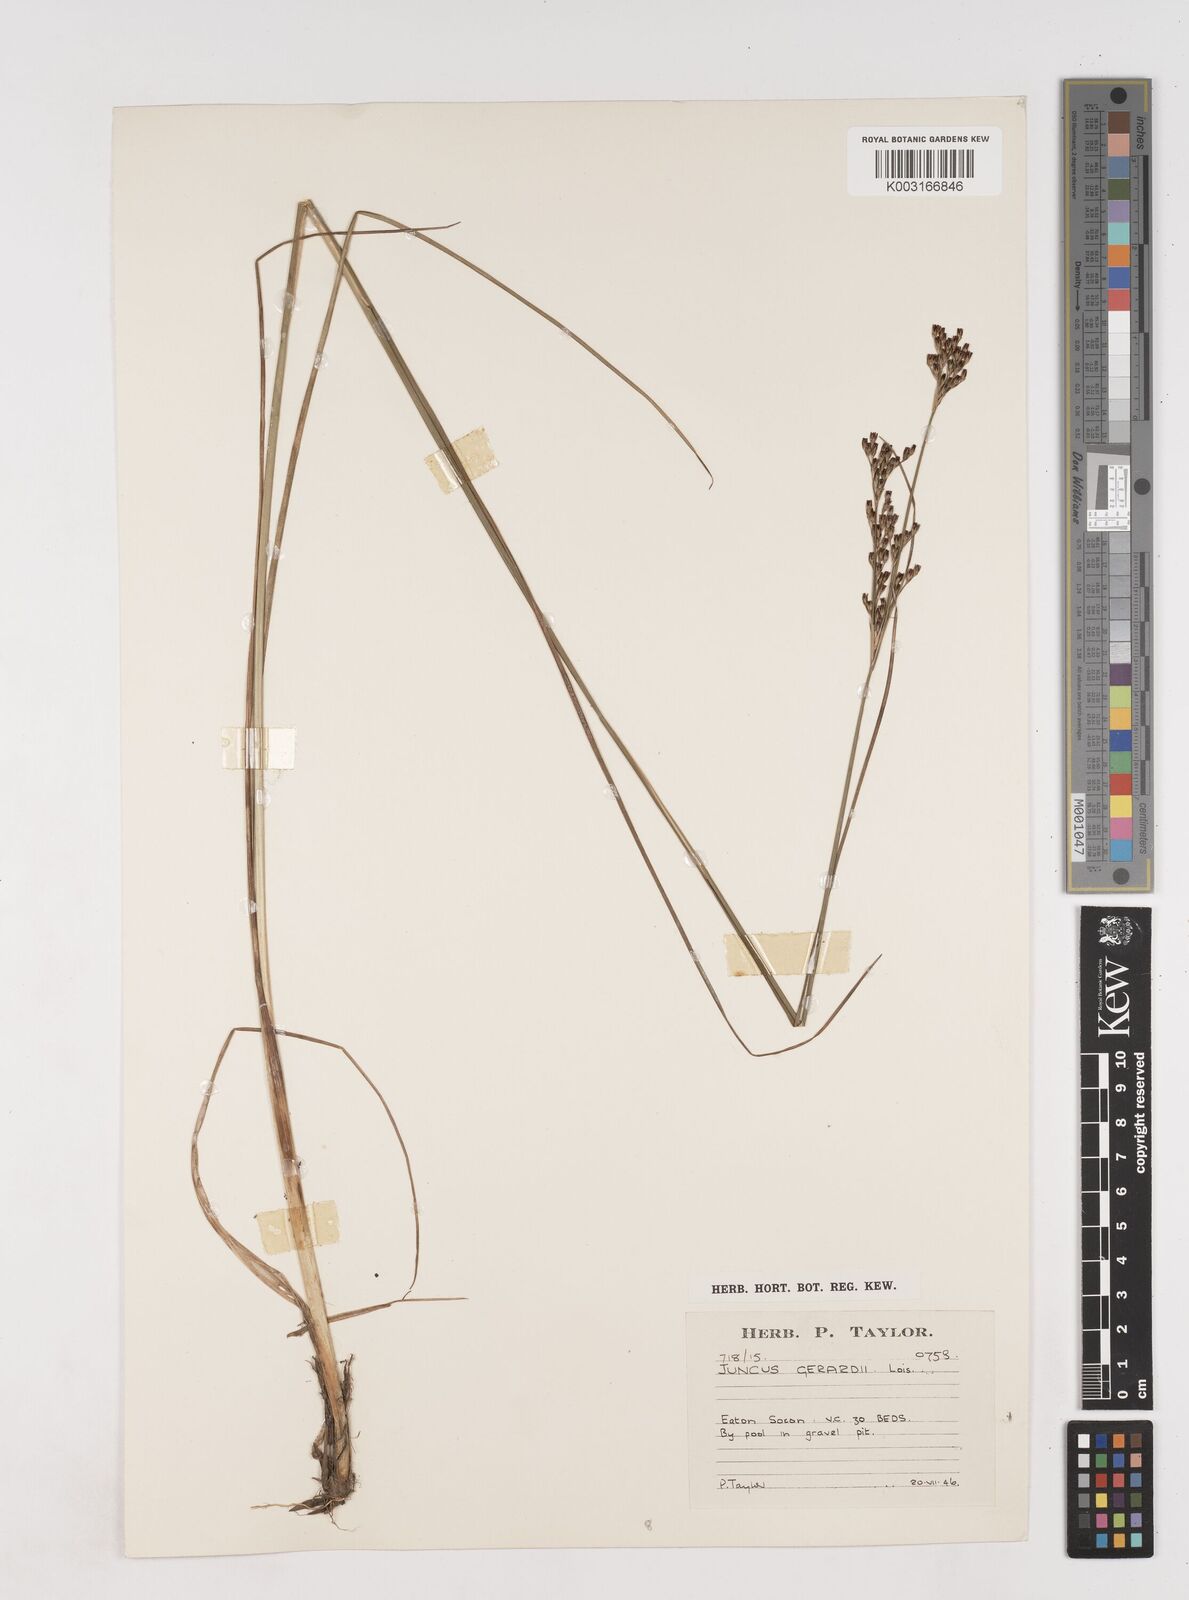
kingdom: Plantae
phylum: Tracheophyta
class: Liliopsida
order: Poales
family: Juncaceae
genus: Juncus
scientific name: Juncus gerardi
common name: Saltmarsh rush
